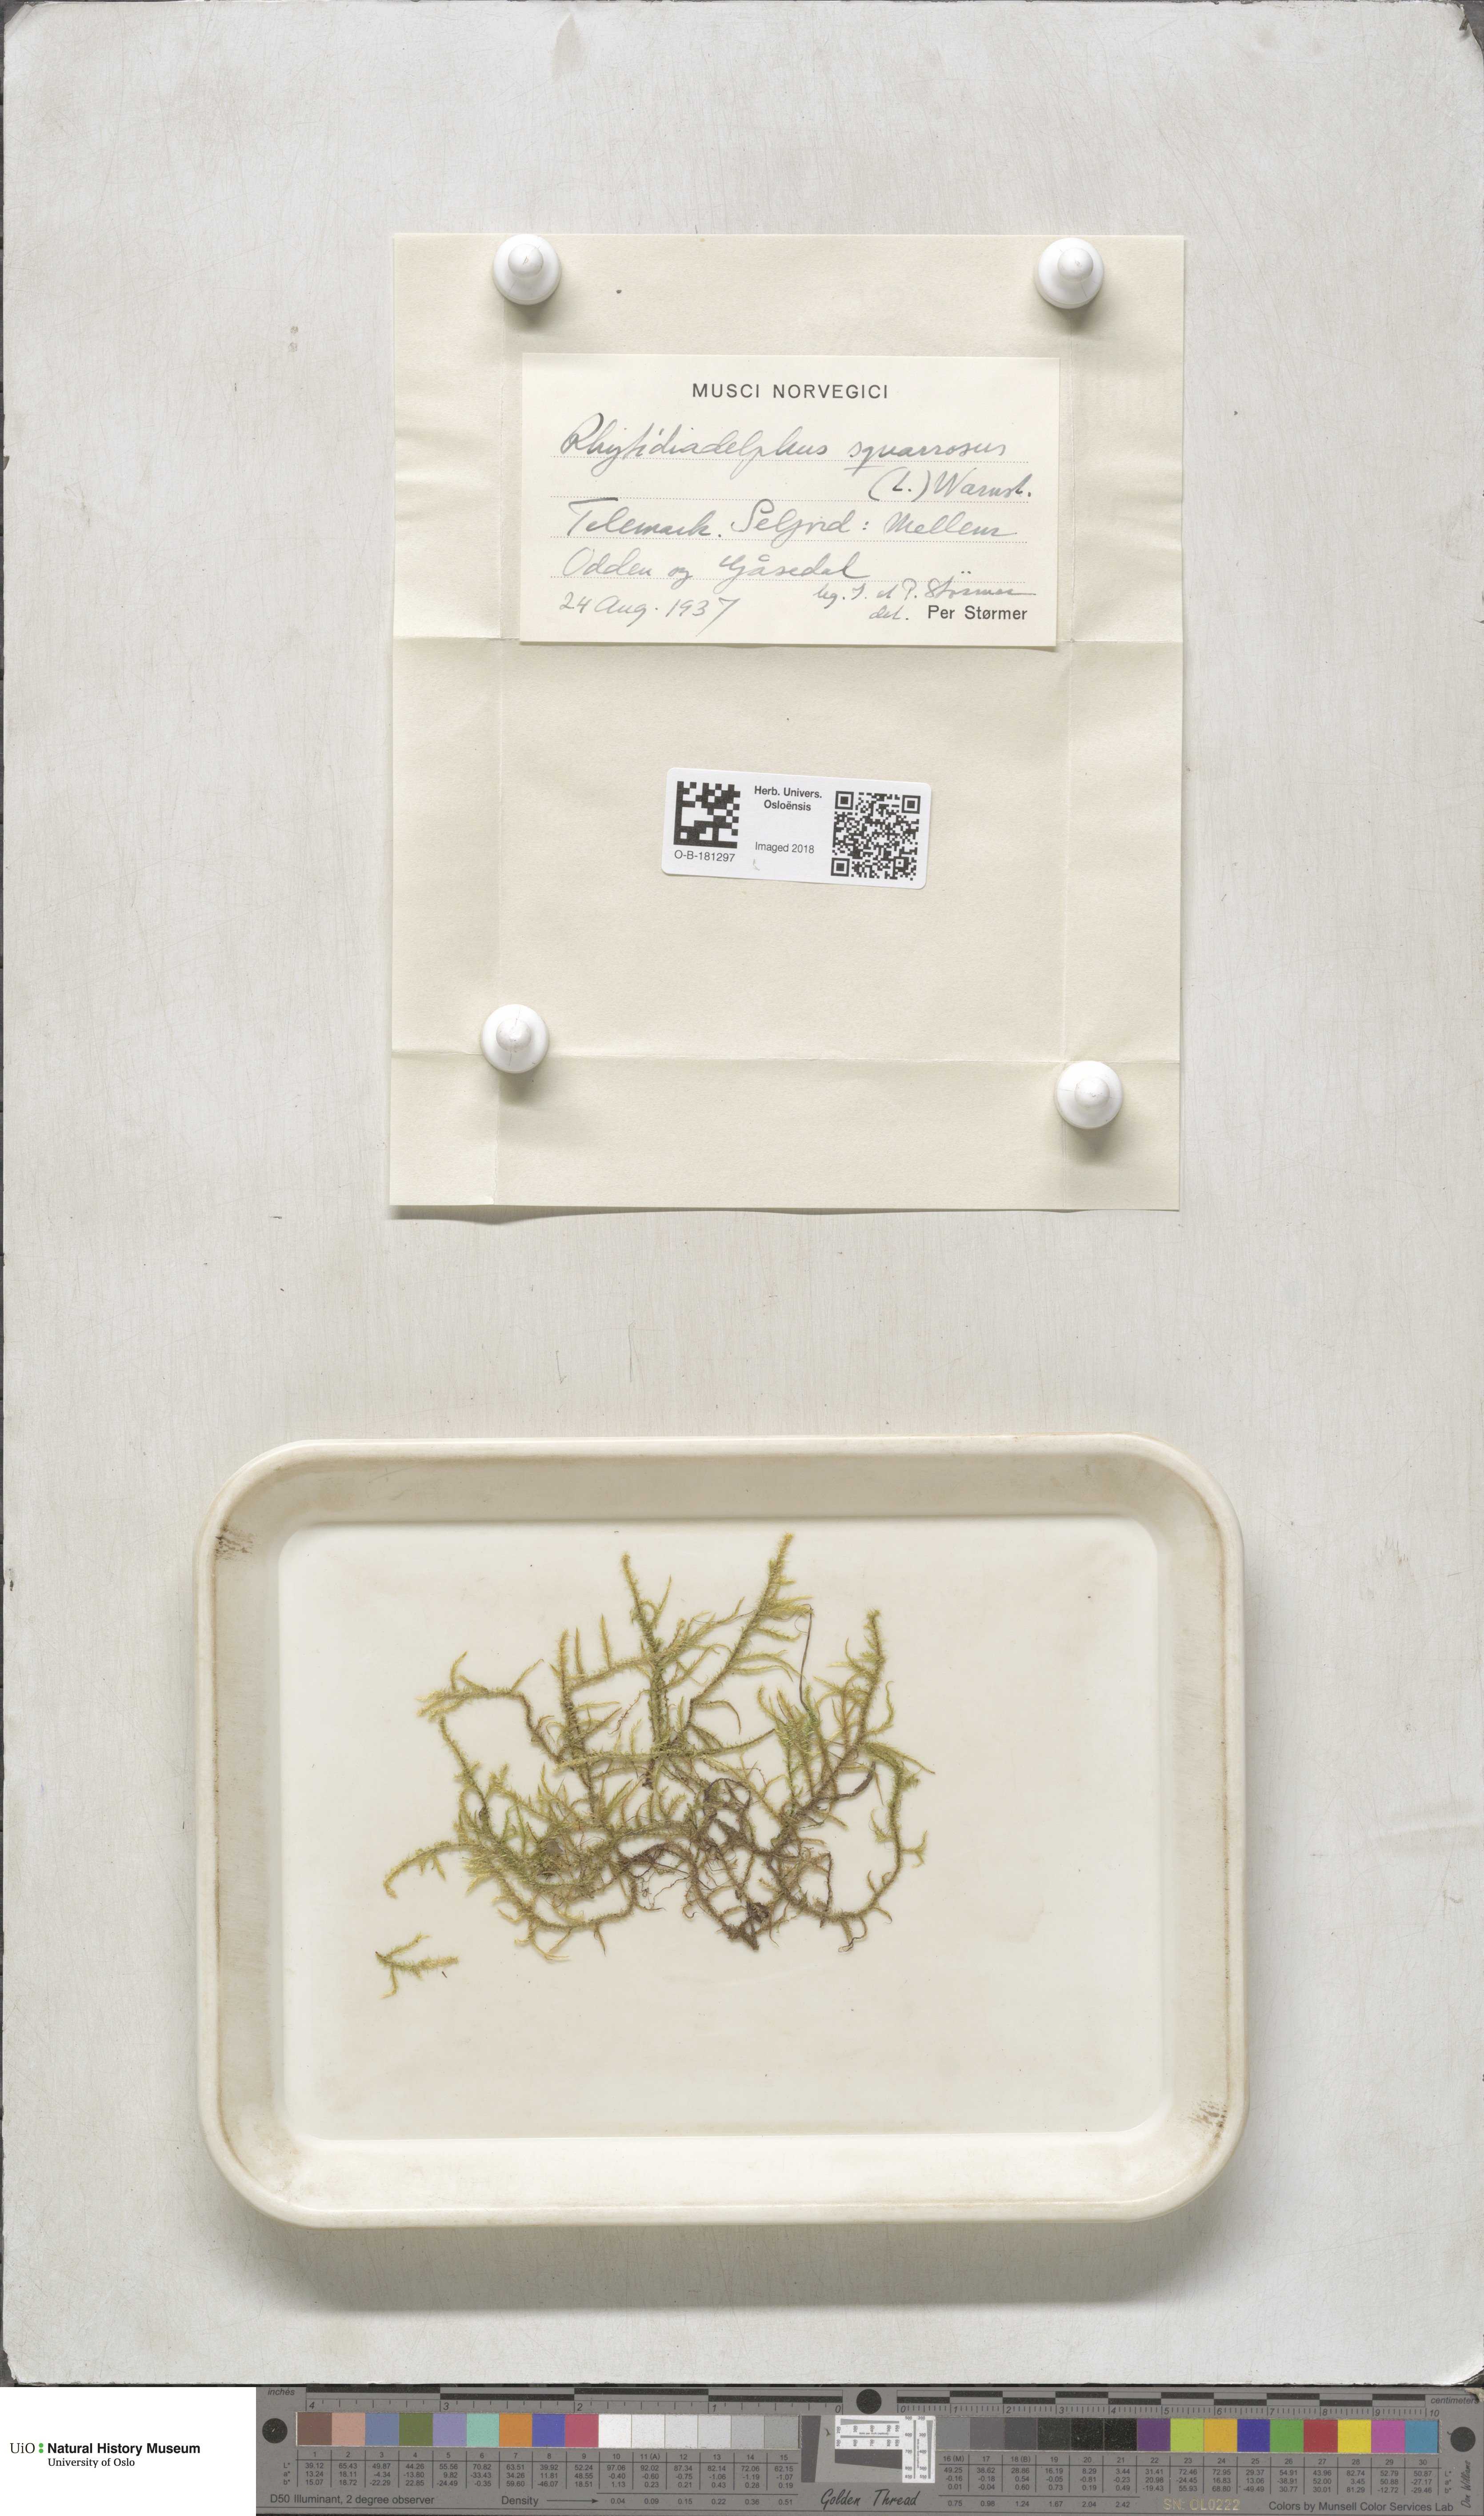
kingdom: Plantae
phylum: Bryophyta
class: Bryopsida
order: Hypnales
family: Hylocomiaceae
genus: Rhytidiadelphus
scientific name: Rhytidiadelphus squarrosus
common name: Springy turf-moss
